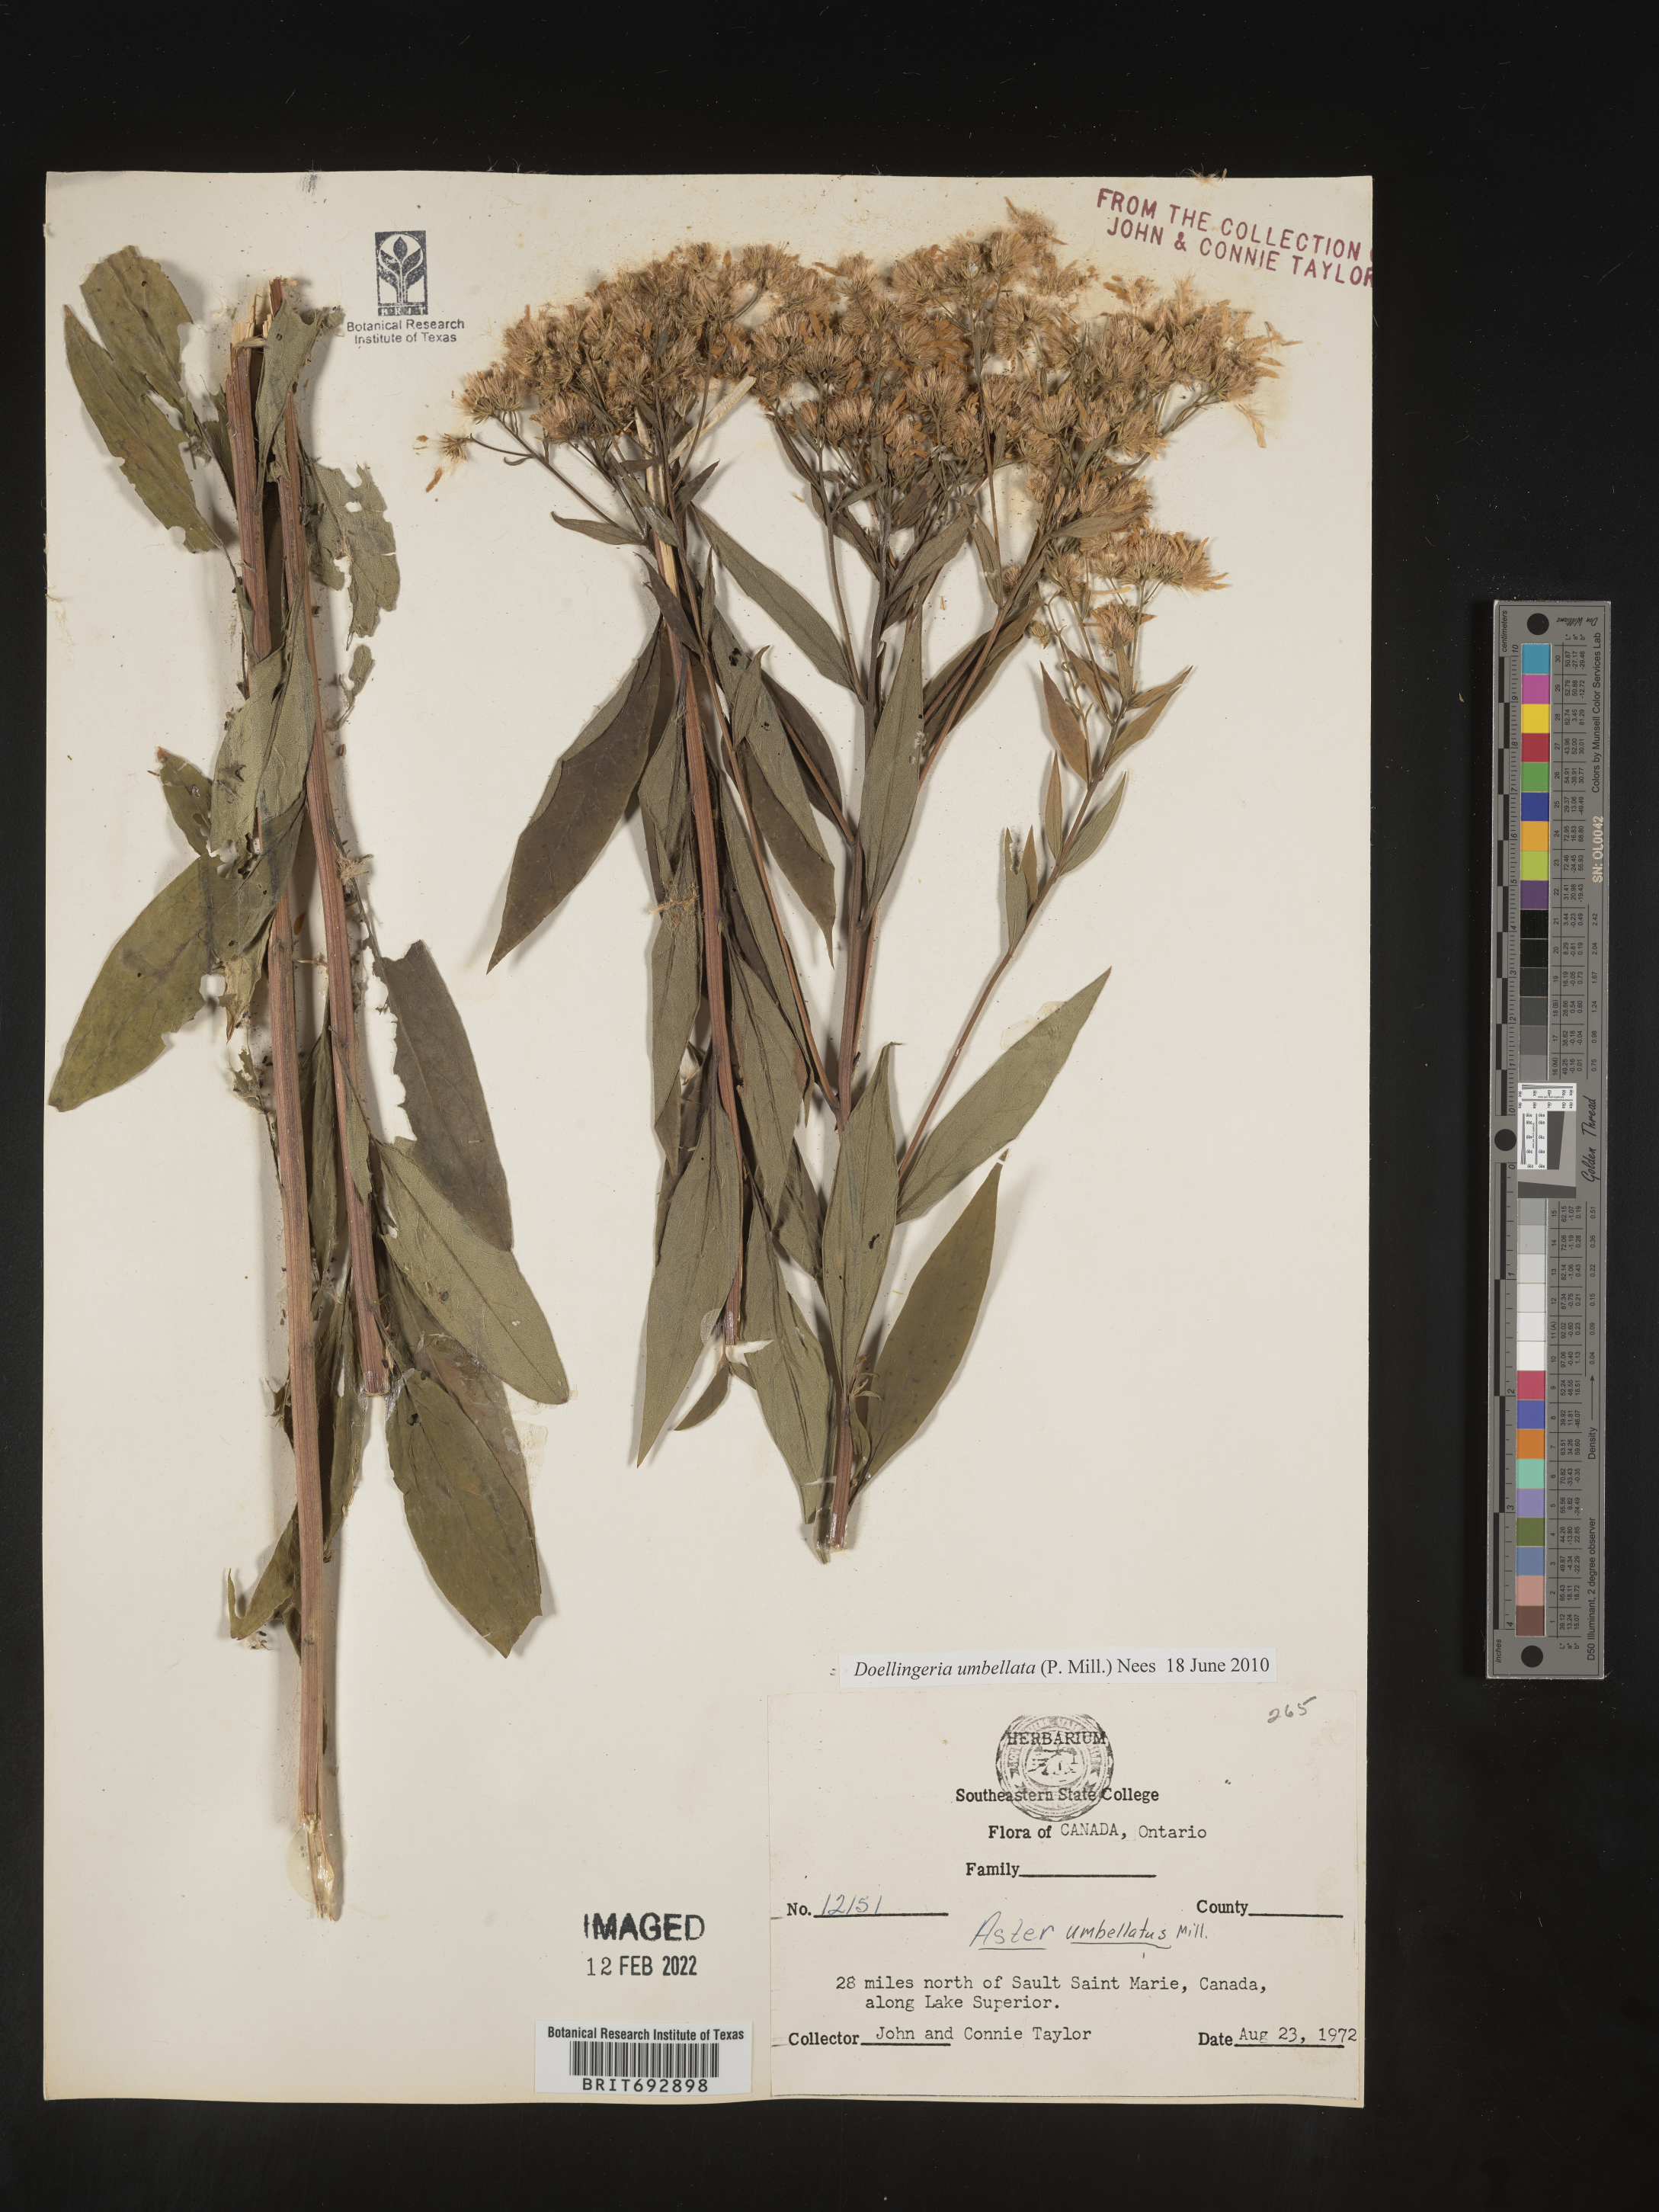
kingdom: Plantae
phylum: Tracheophyta
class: Magnoliopsida
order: Asterales
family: Asteraceae
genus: Doellingeria
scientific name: Doellingeria umbellata
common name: Flat-top white aster
